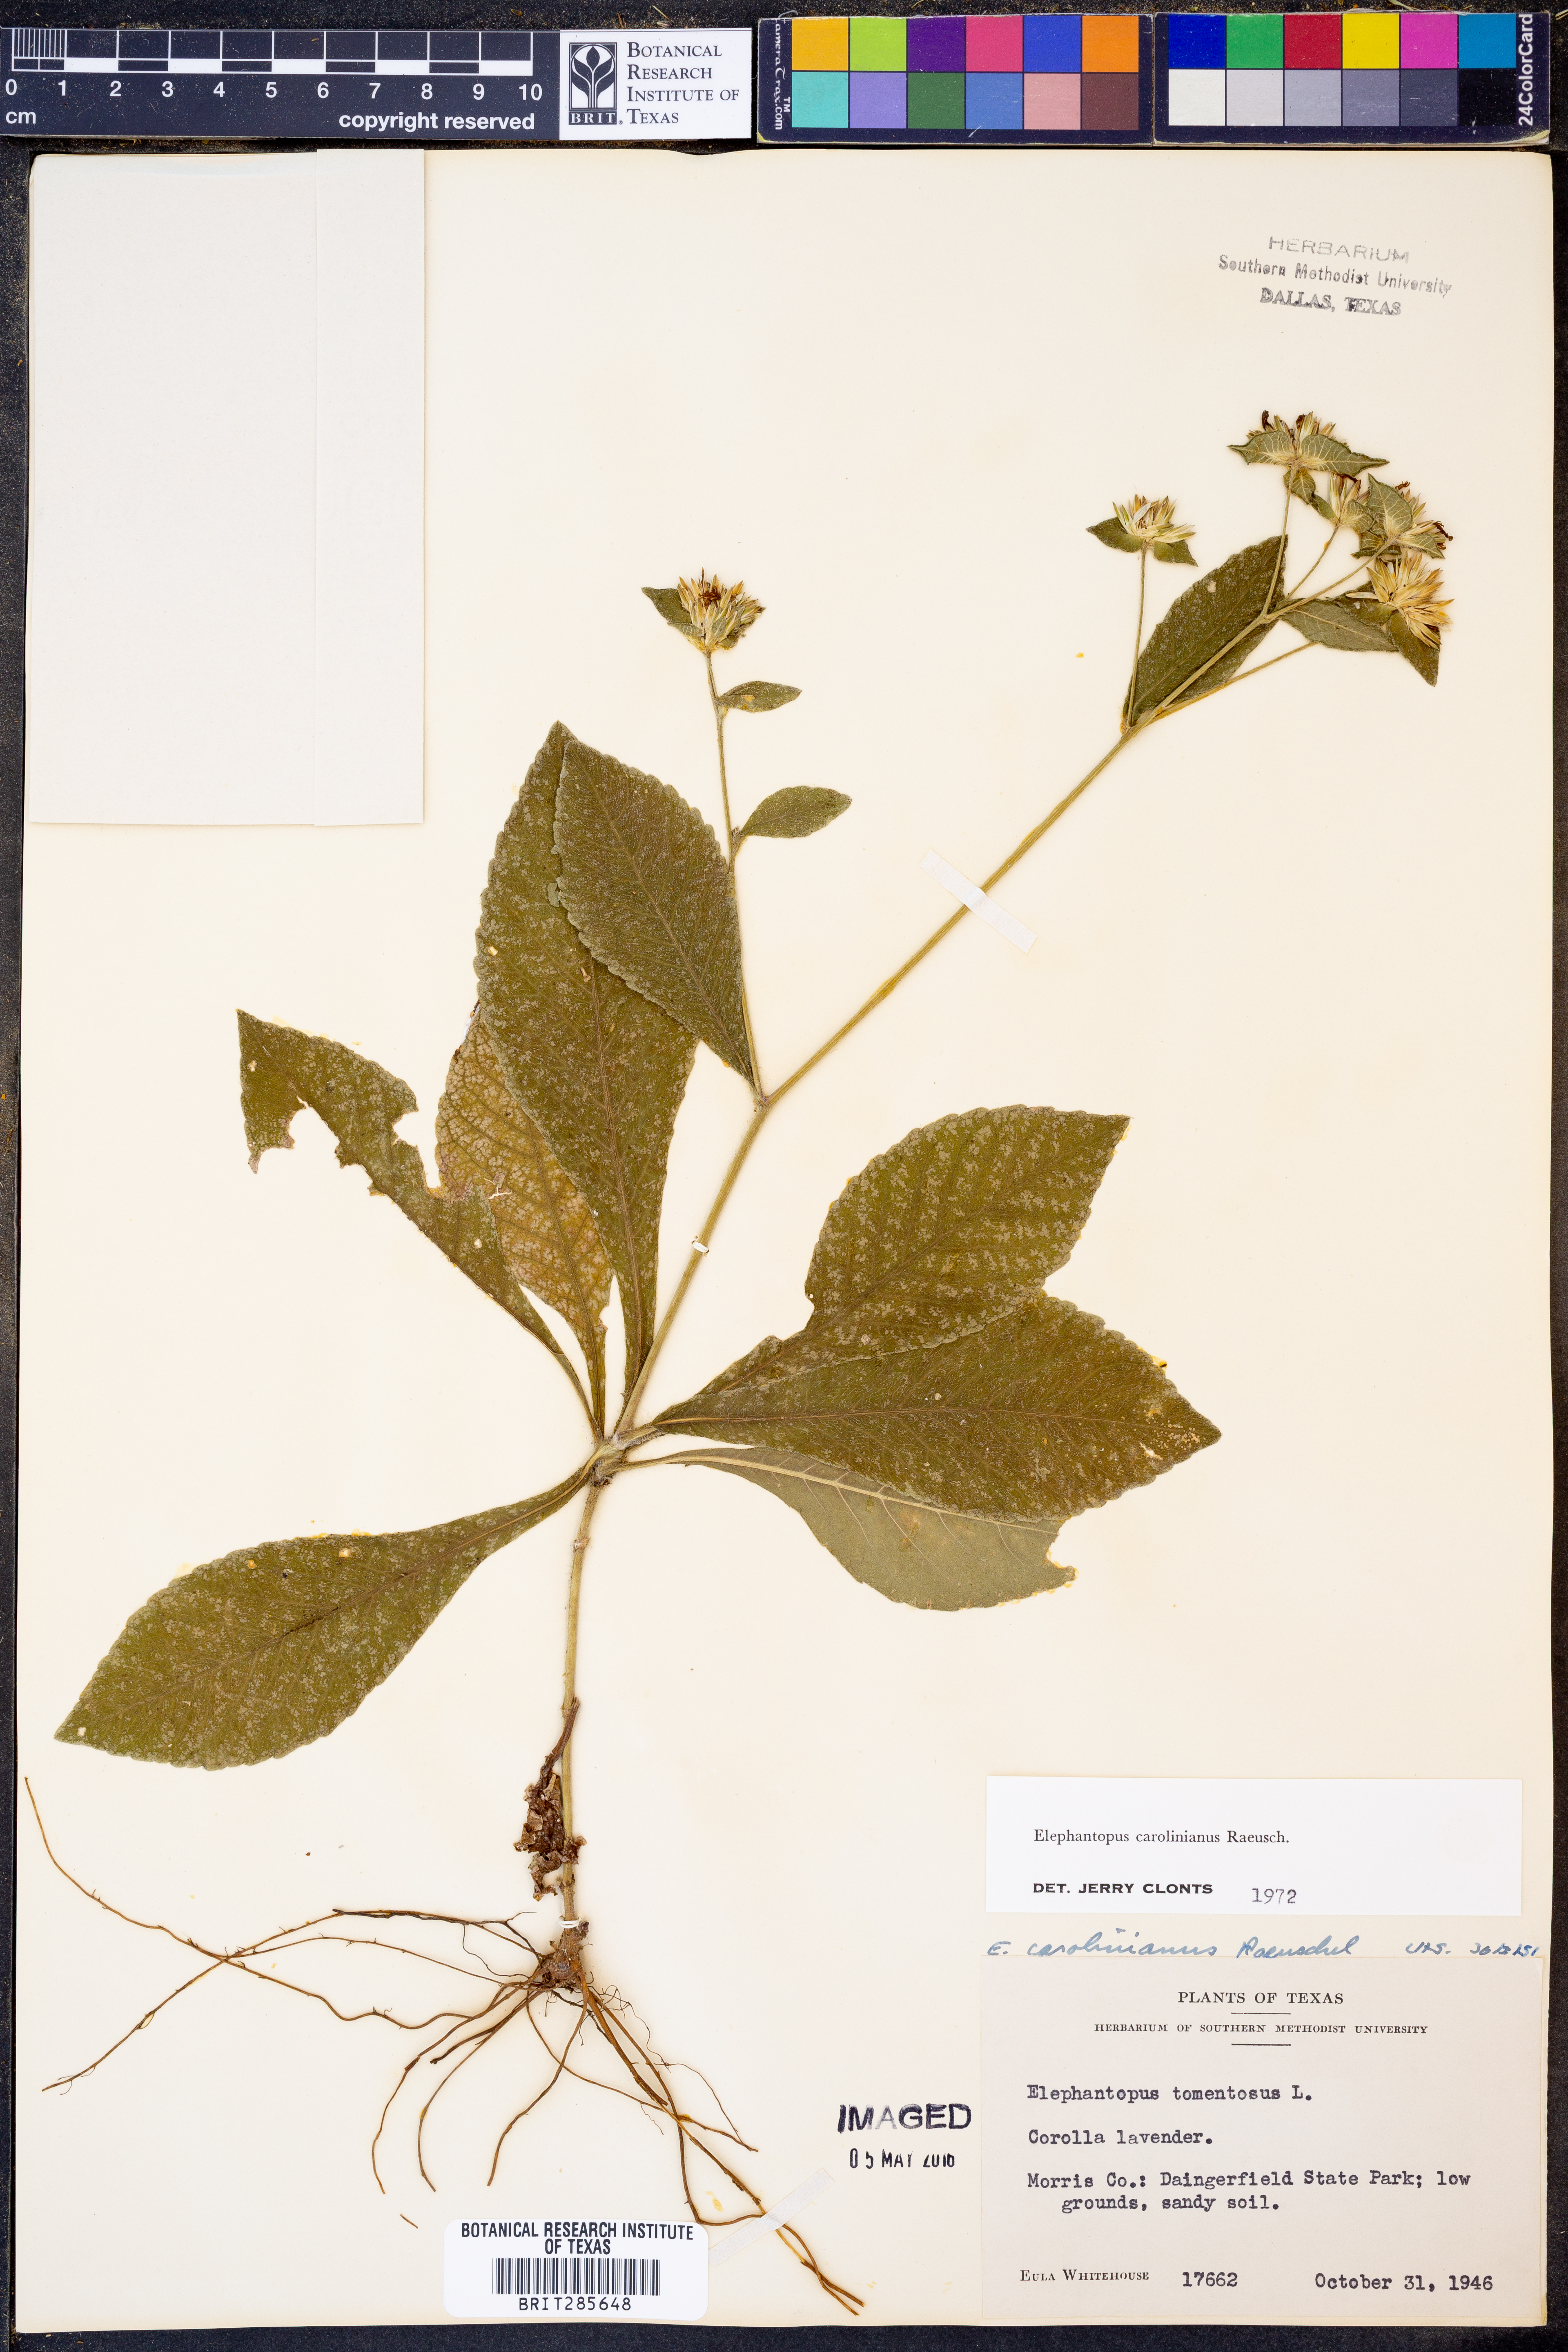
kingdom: Plantae
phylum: Tracheophyta
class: Magnoliopsida
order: Asterales
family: Asteraceae
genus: Elephantopus
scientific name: Elephantopus carolinianus
